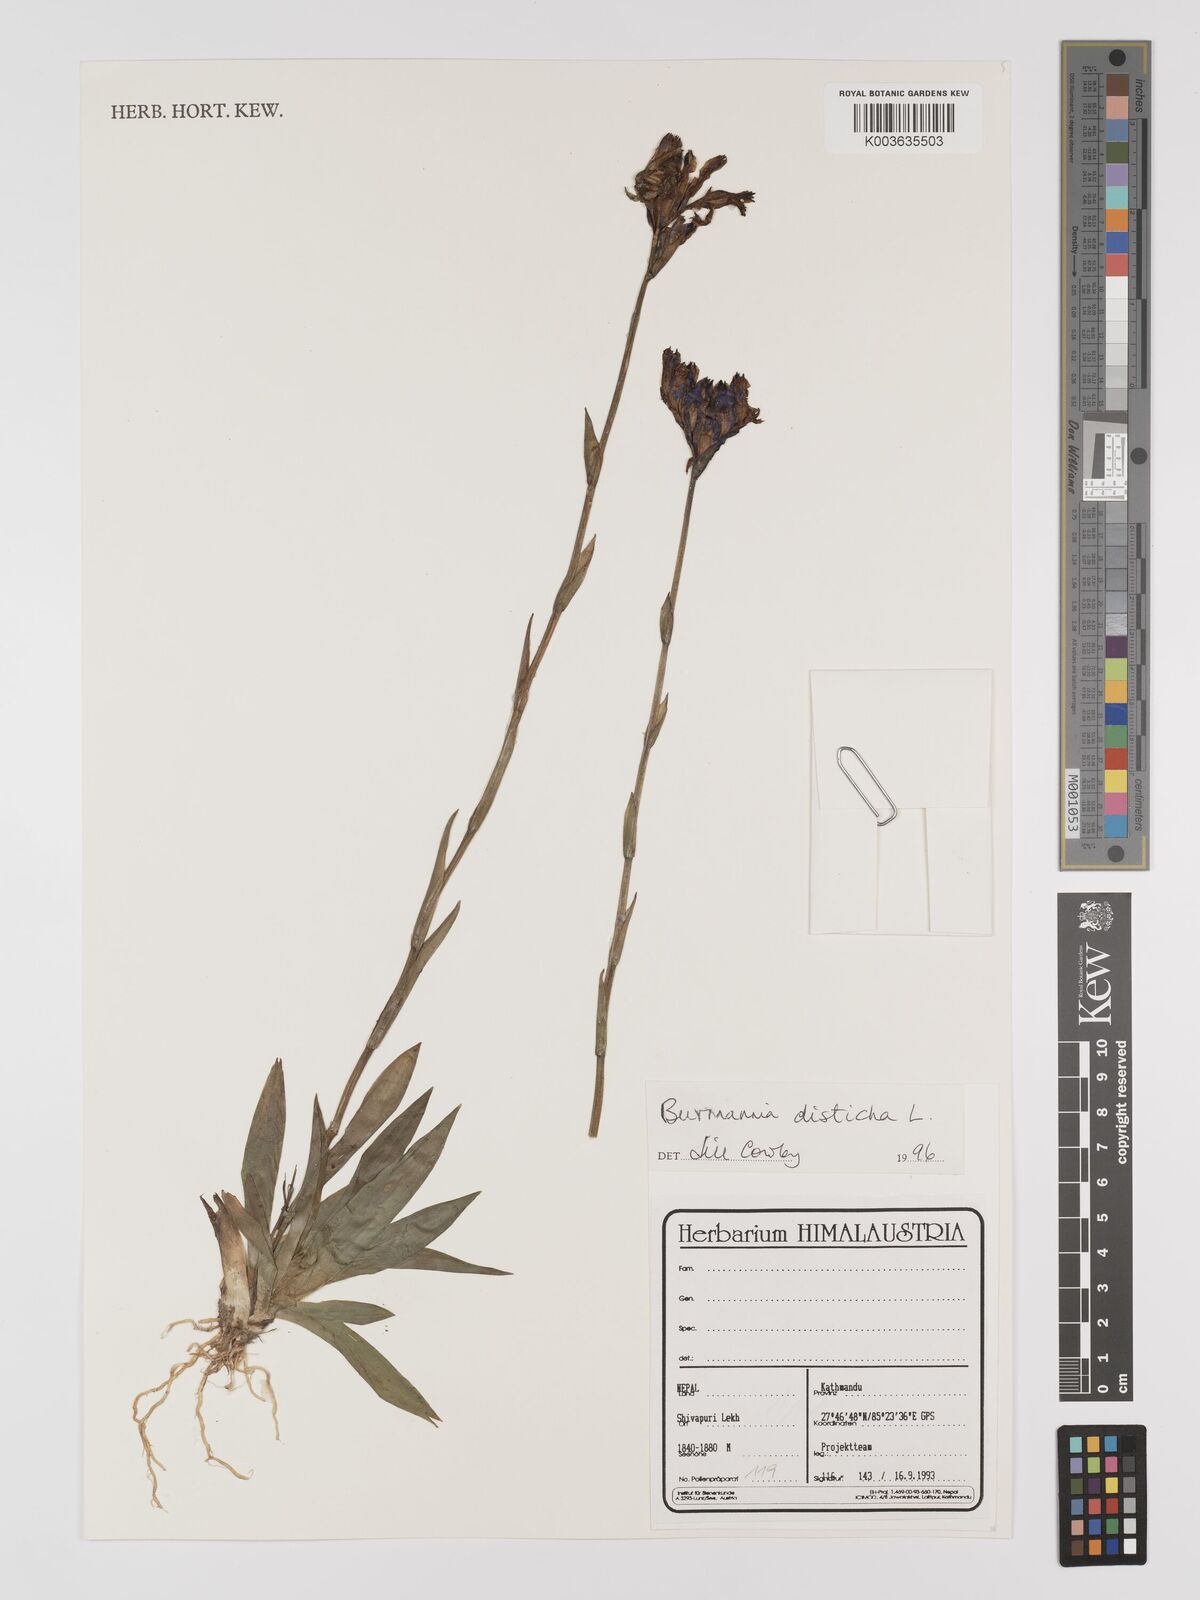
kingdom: Plantae
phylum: Tracheophyta
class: Liliopsida
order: Dioscoreales
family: Burmanniaceae
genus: Burmannia
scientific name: Burmannia disticha
